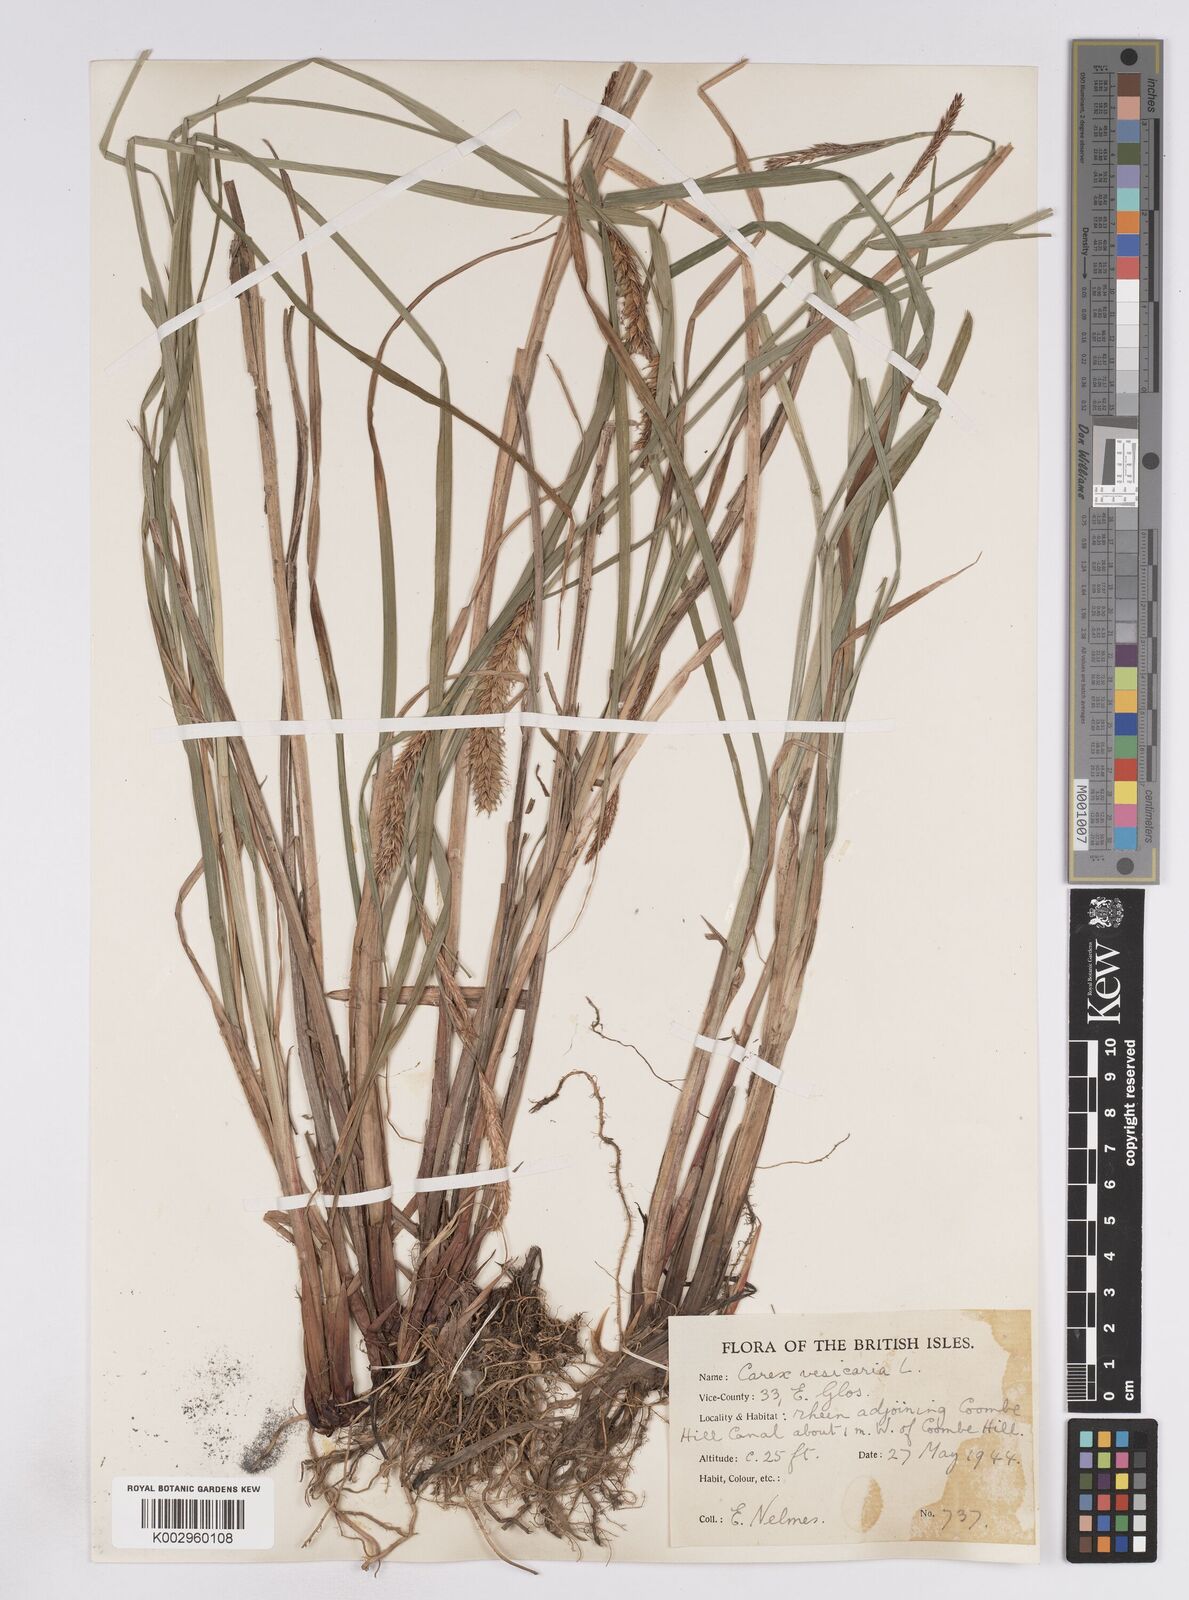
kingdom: Plantae
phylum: Tracheophyta
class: Liliopsida
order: Poales
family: Cyperaceae
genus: Carex
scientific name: Carex vesicaria
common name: Bladder-sedge
